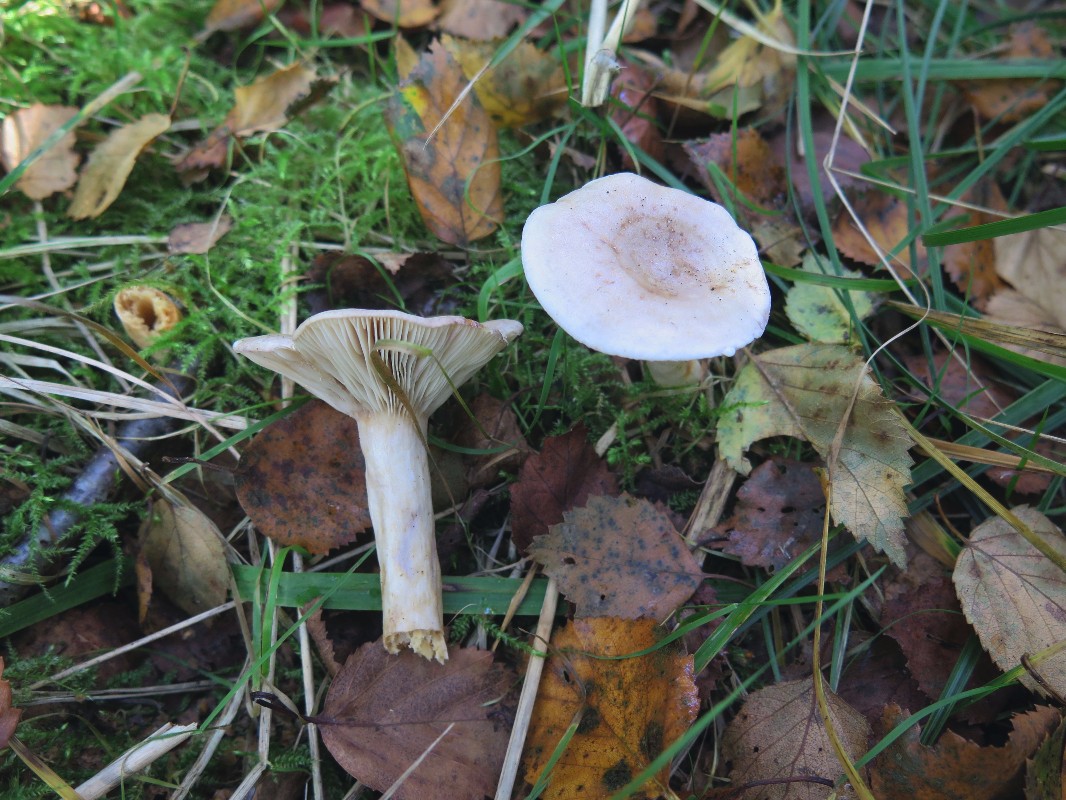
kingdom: Fungi
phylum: Basidiomycota
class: Agaricomycetes
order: Russulales
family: Russulaceae
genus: Lactarius
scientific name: Lactarius uvidus
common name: violetkødet mælkehat
